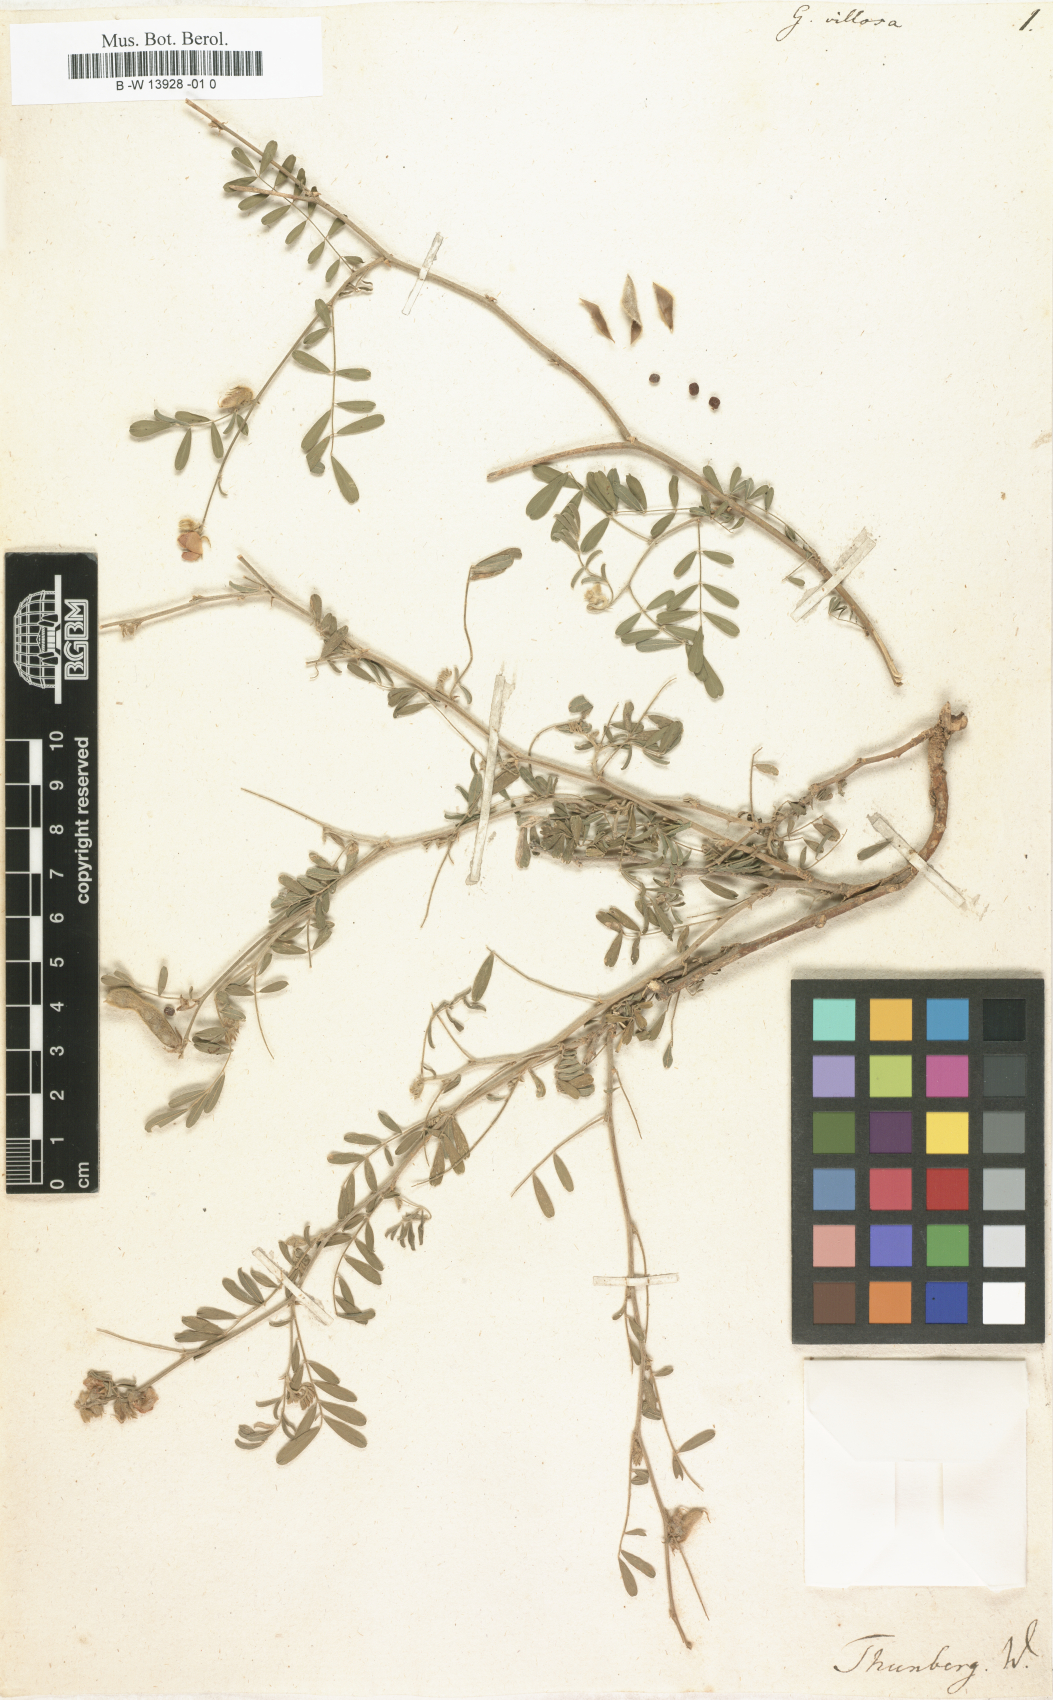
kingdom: Plantae
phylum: Tracheophyta
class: Magnoliopsida
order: Fabales
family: Fabaceae
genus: Tephrosia
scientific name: Tephrosia hookeriana
